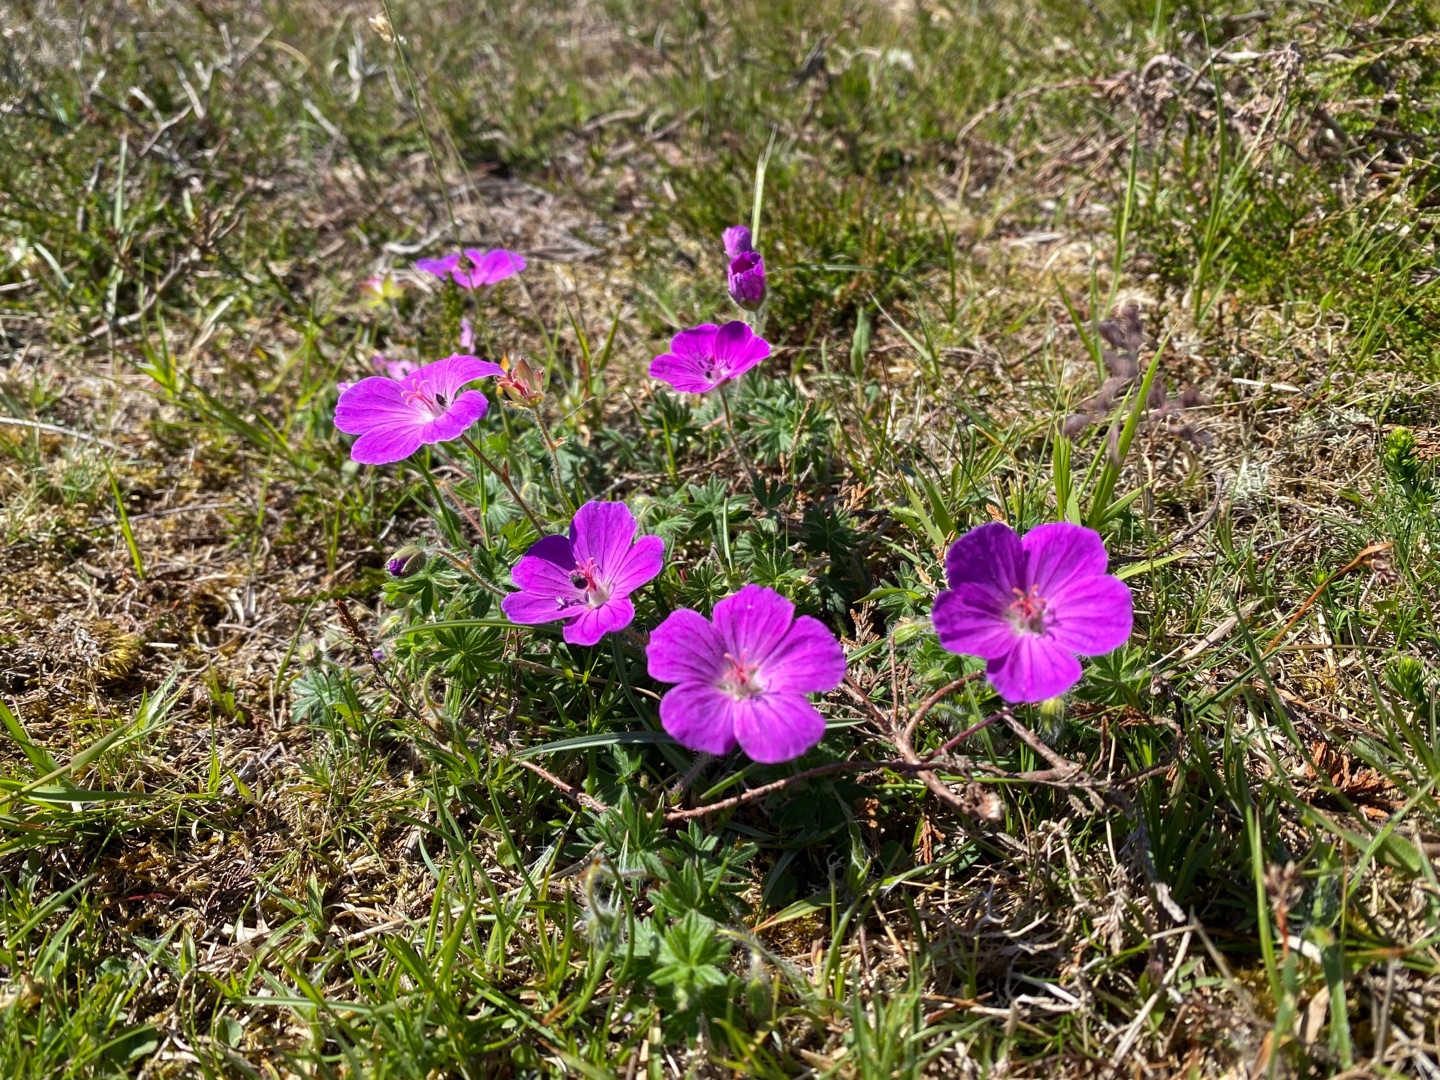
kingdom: Plantae
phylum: Tracheophyta
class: Magnoliopsida
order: Geraniales
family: Geraniaceae
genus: Geranium
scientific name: Geranium sanguineum
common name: Blodrød storkenæb
